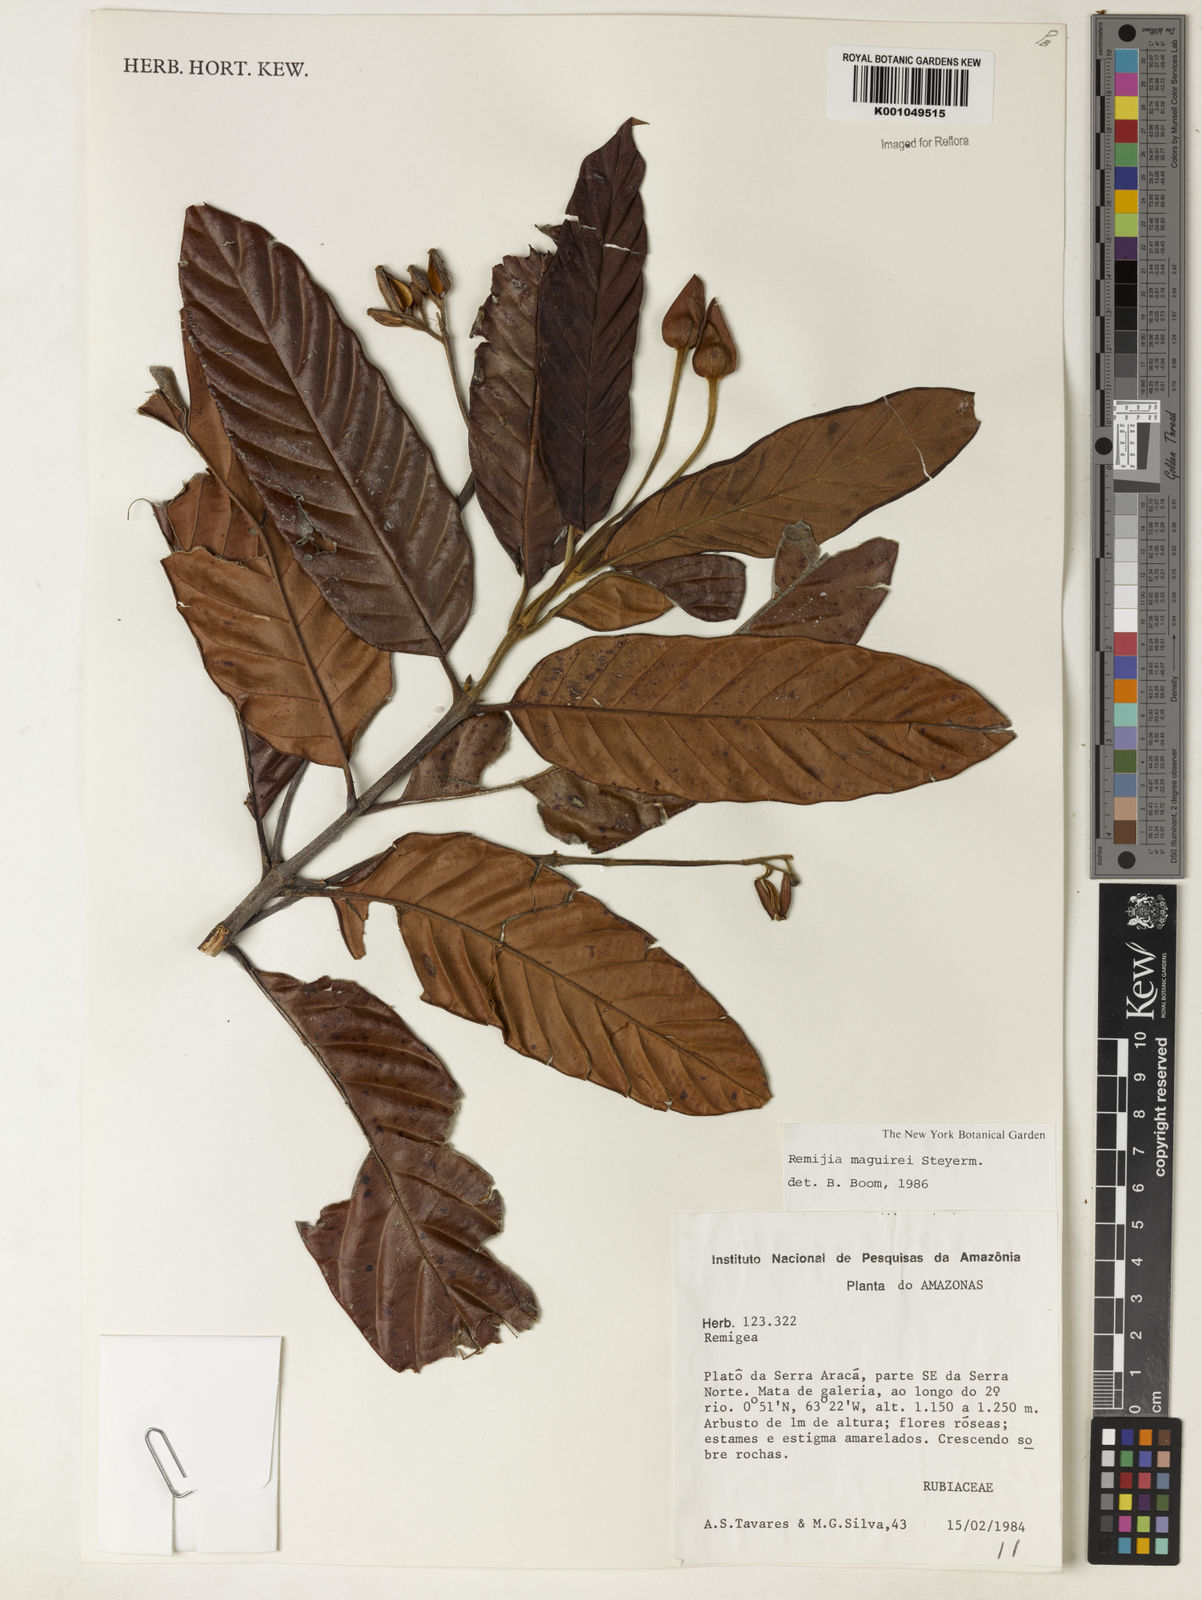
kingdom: Plantae
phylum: Tracheophyta
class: Magnoliopsida
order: Gentianales
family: Rubiaceae
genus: Remijia
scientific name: Remijia maguirei
